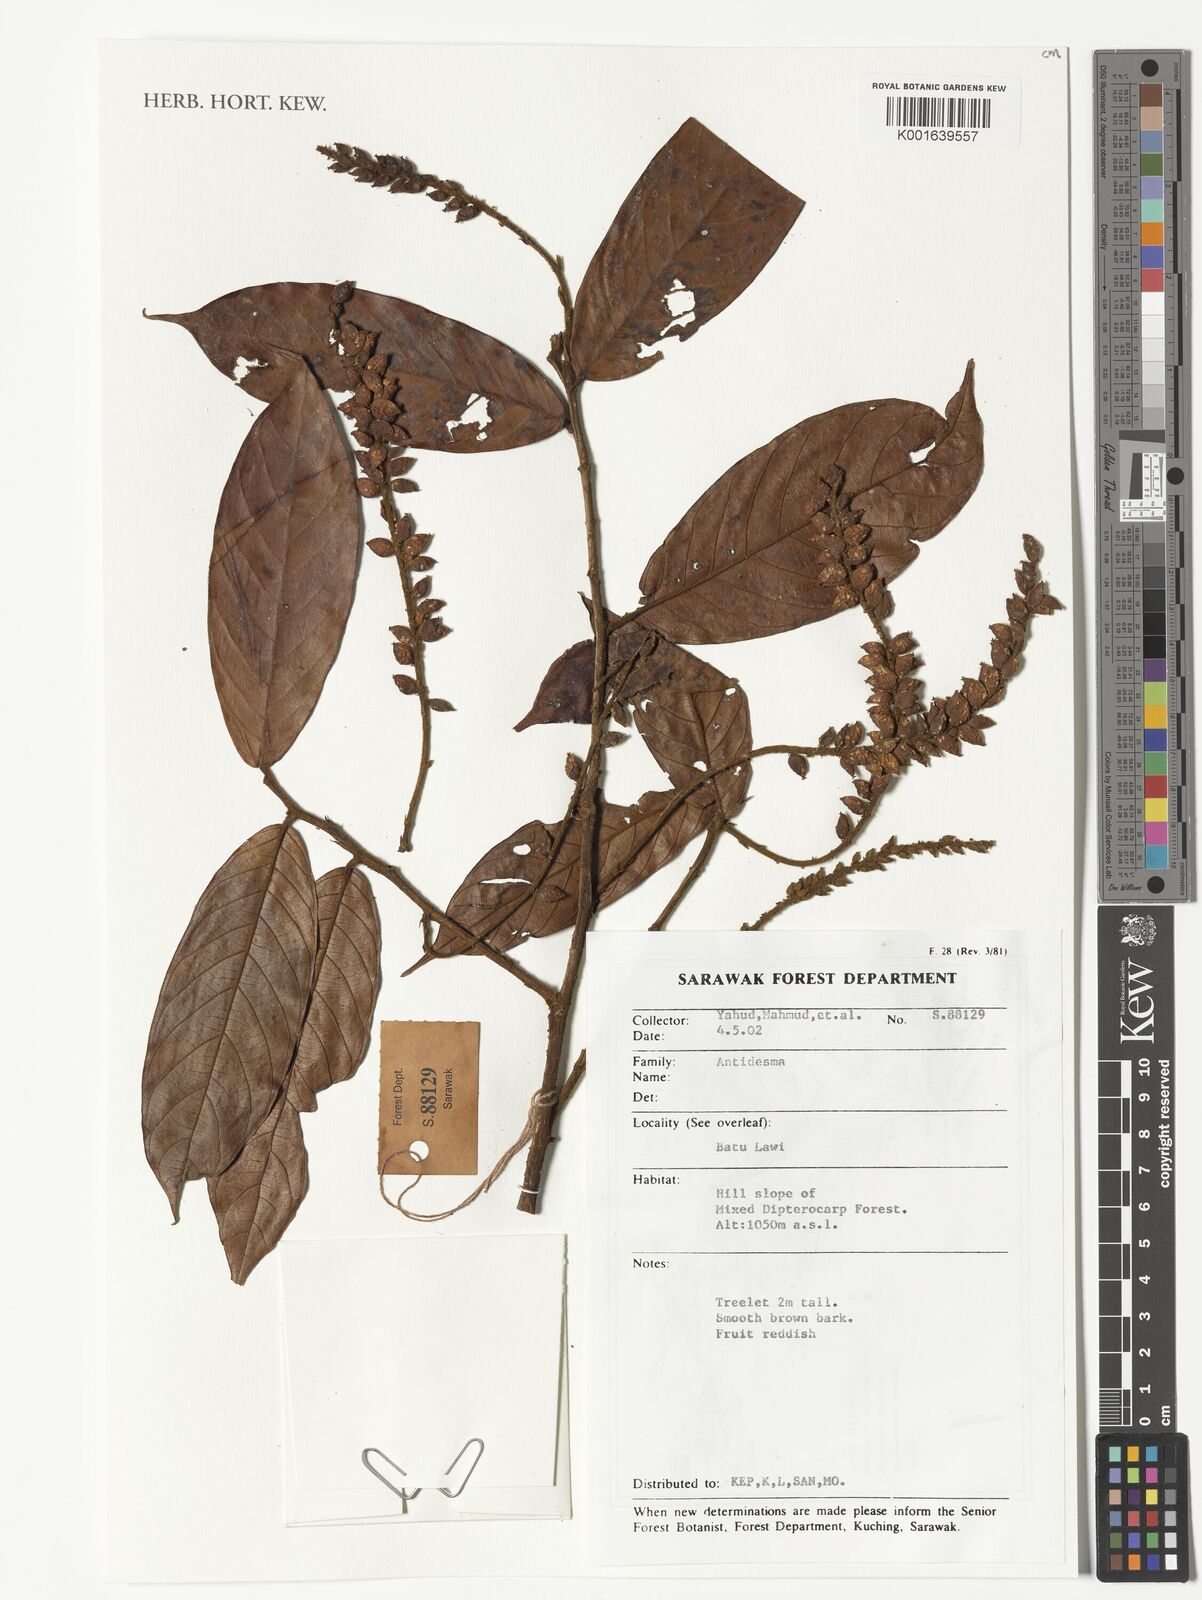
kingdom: Plantae
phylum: Tracheophyta
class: Magnoliopsida
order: Malpighiales
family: Phyllanthaceae
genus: Antidesma
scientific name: Antidesma
